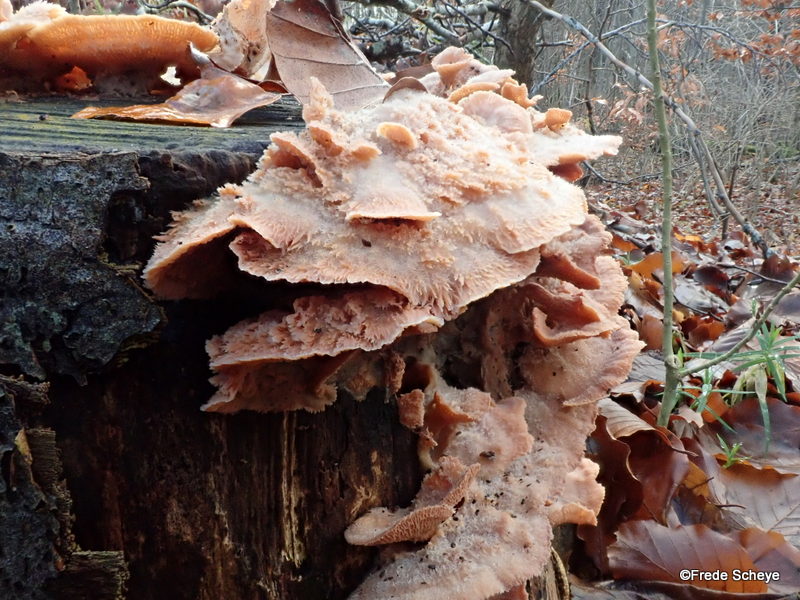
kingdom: Fungi
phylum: Basidiomycota
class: Agaricomycetes
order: Polyporales
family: Meruliaceae
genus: Phlebia
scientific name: Phlebia tremellosa
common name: bævrende åresvamp
